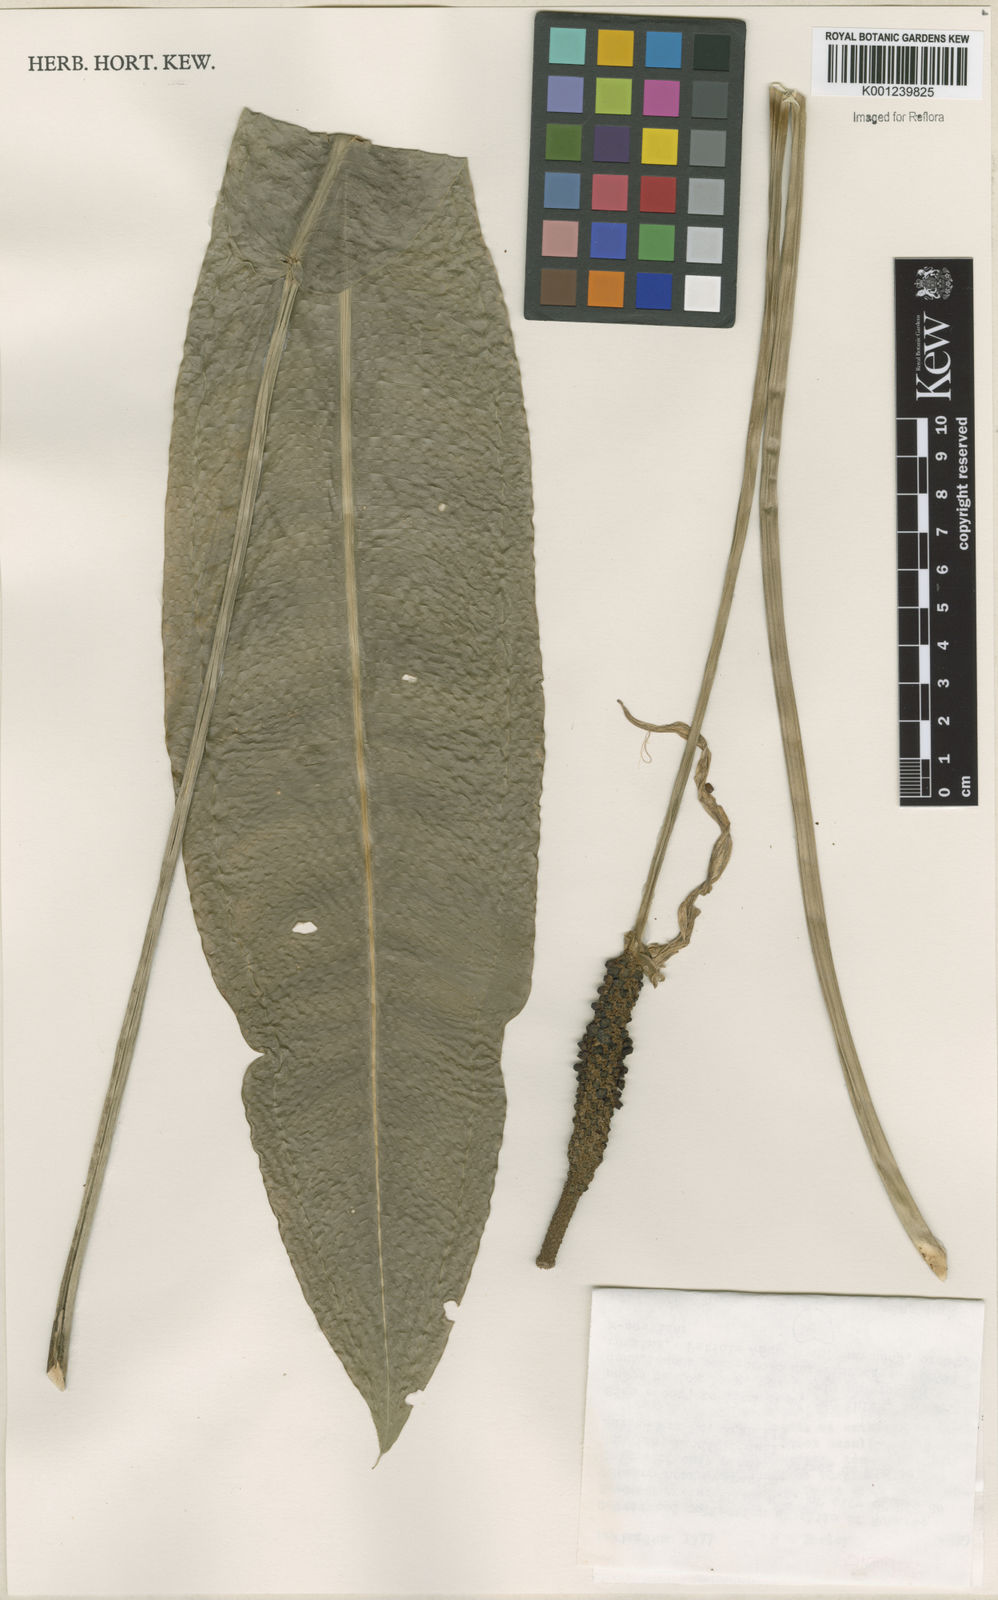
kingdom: Plantae
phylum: Tracheophyta
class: Liliopsida
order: Alismatales
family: Araceae
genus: Anthurium
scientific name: Anthurium
